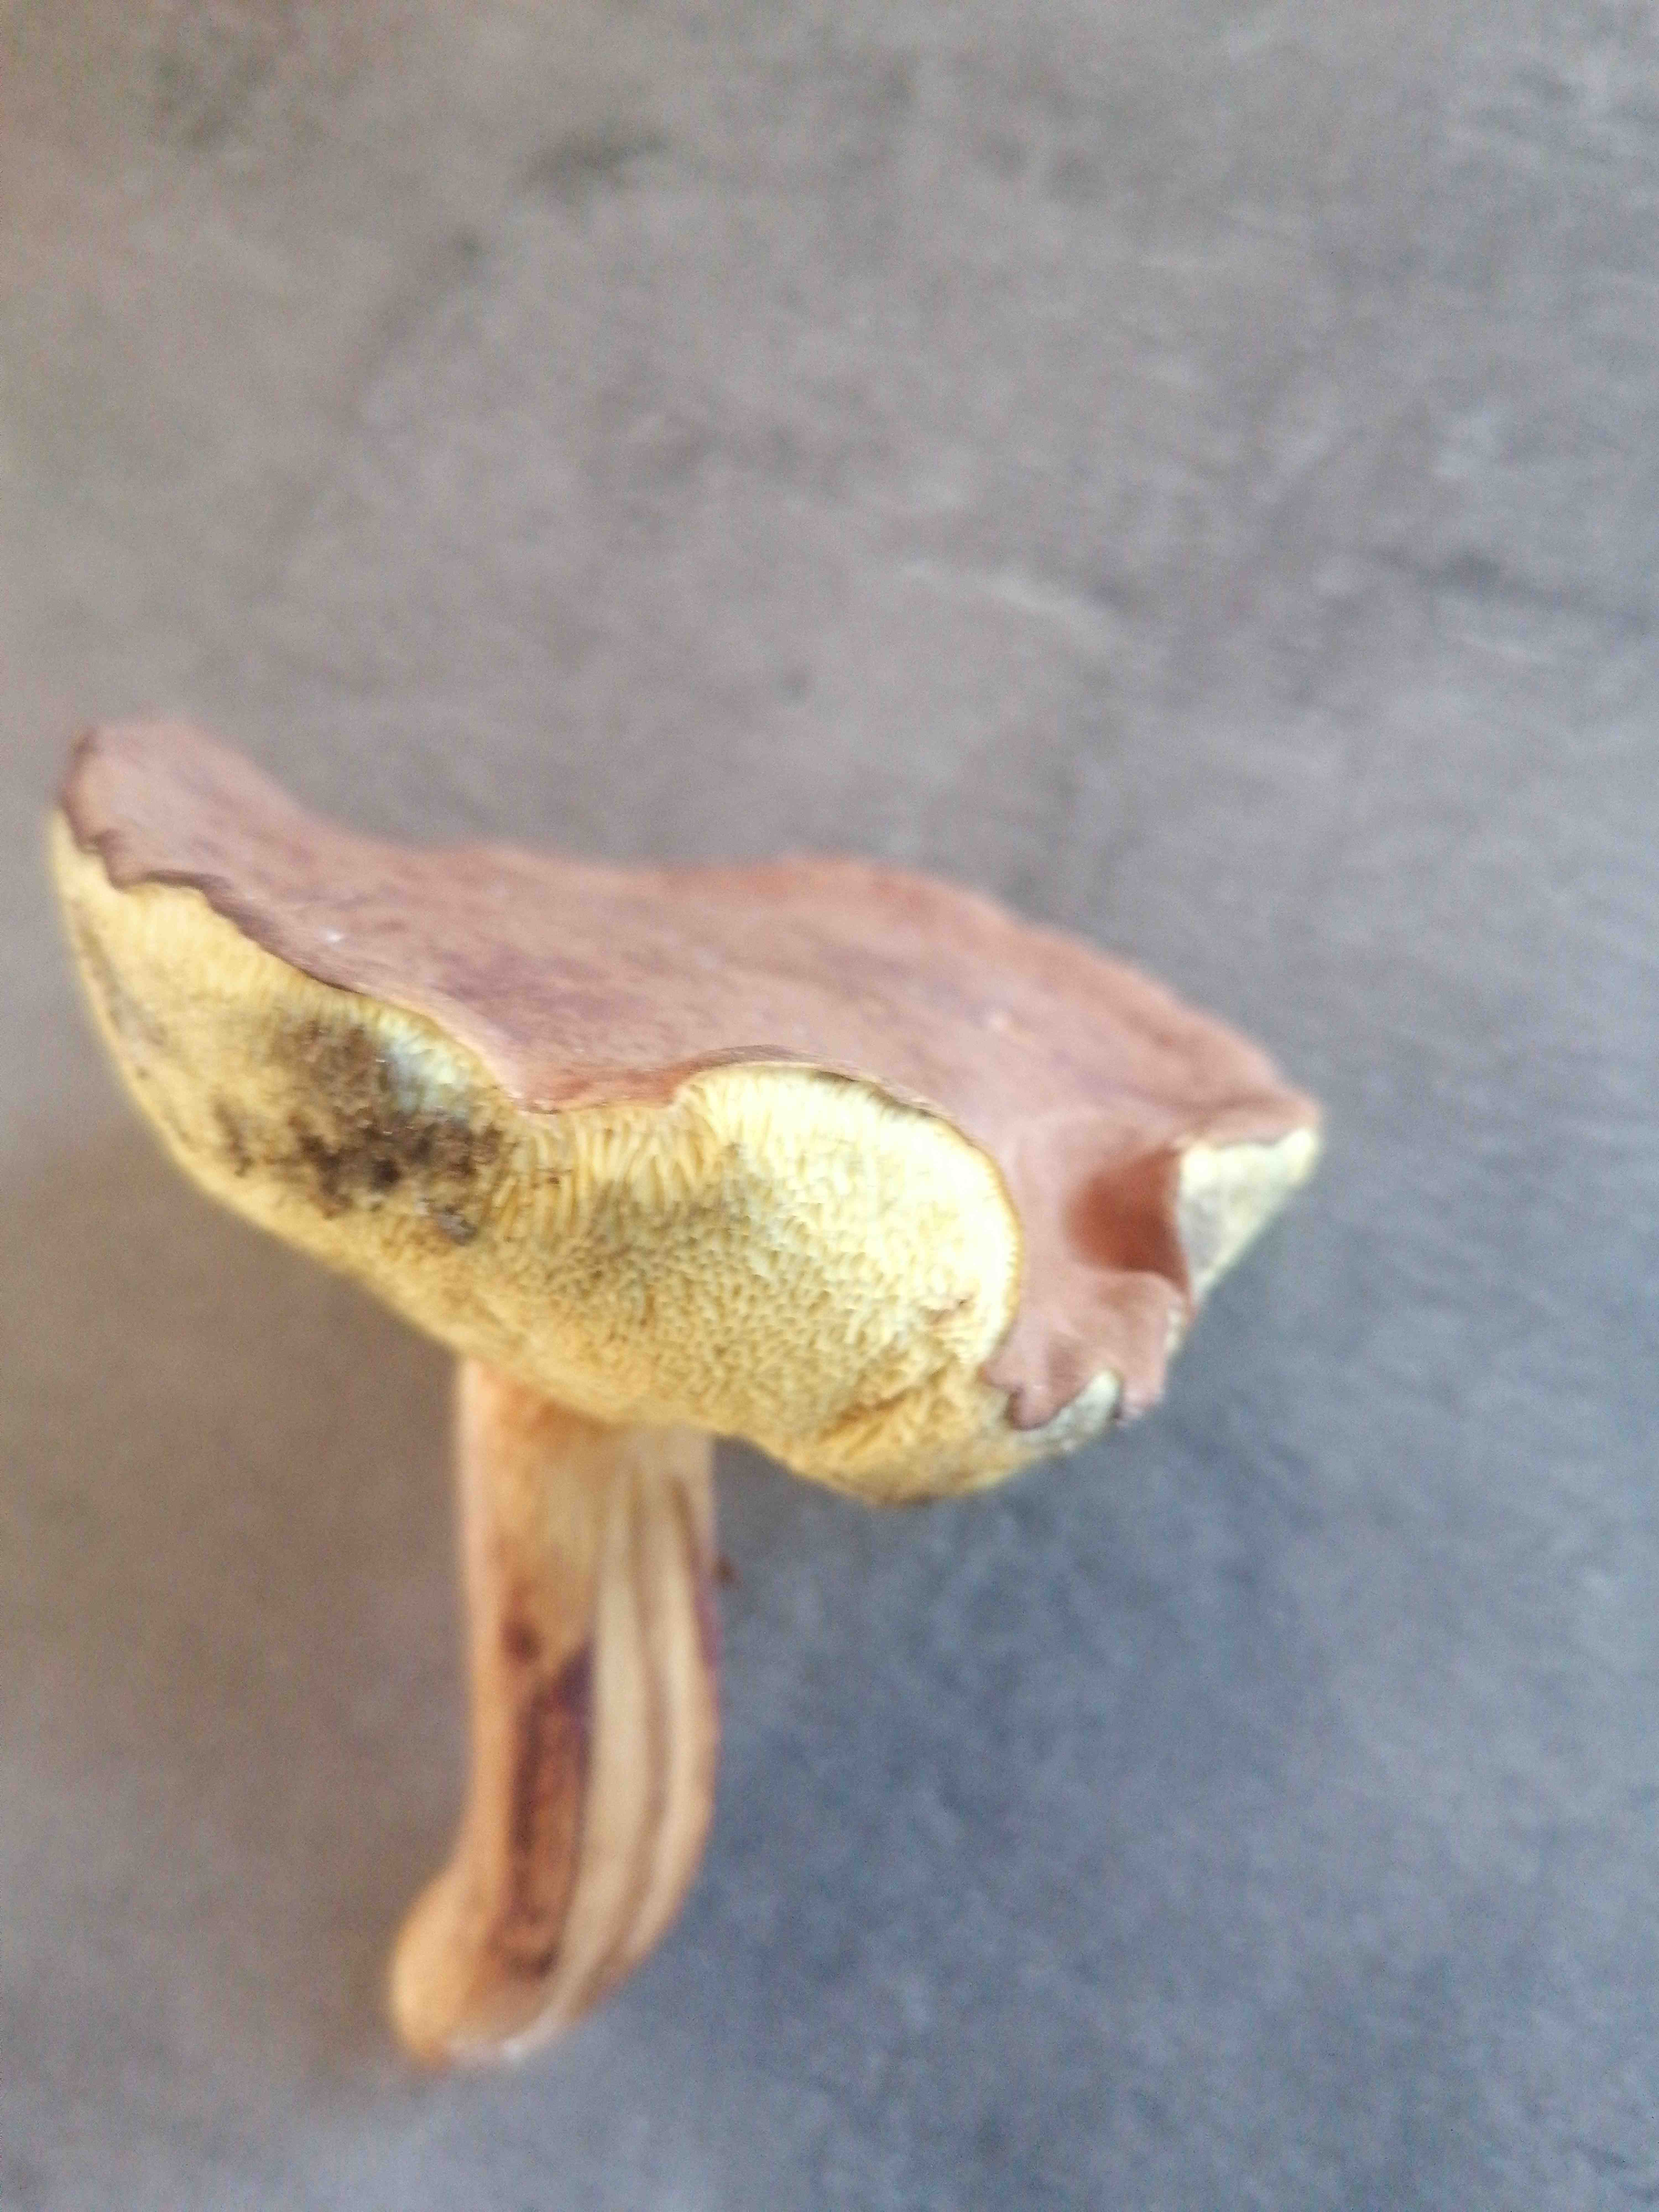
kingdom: Fungi
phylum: Basidiomycota
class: Agaricomycetes
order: Boletales
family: Boletaceae
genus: Imleria
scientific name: Imleria badia
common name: brunstokket rørhat
